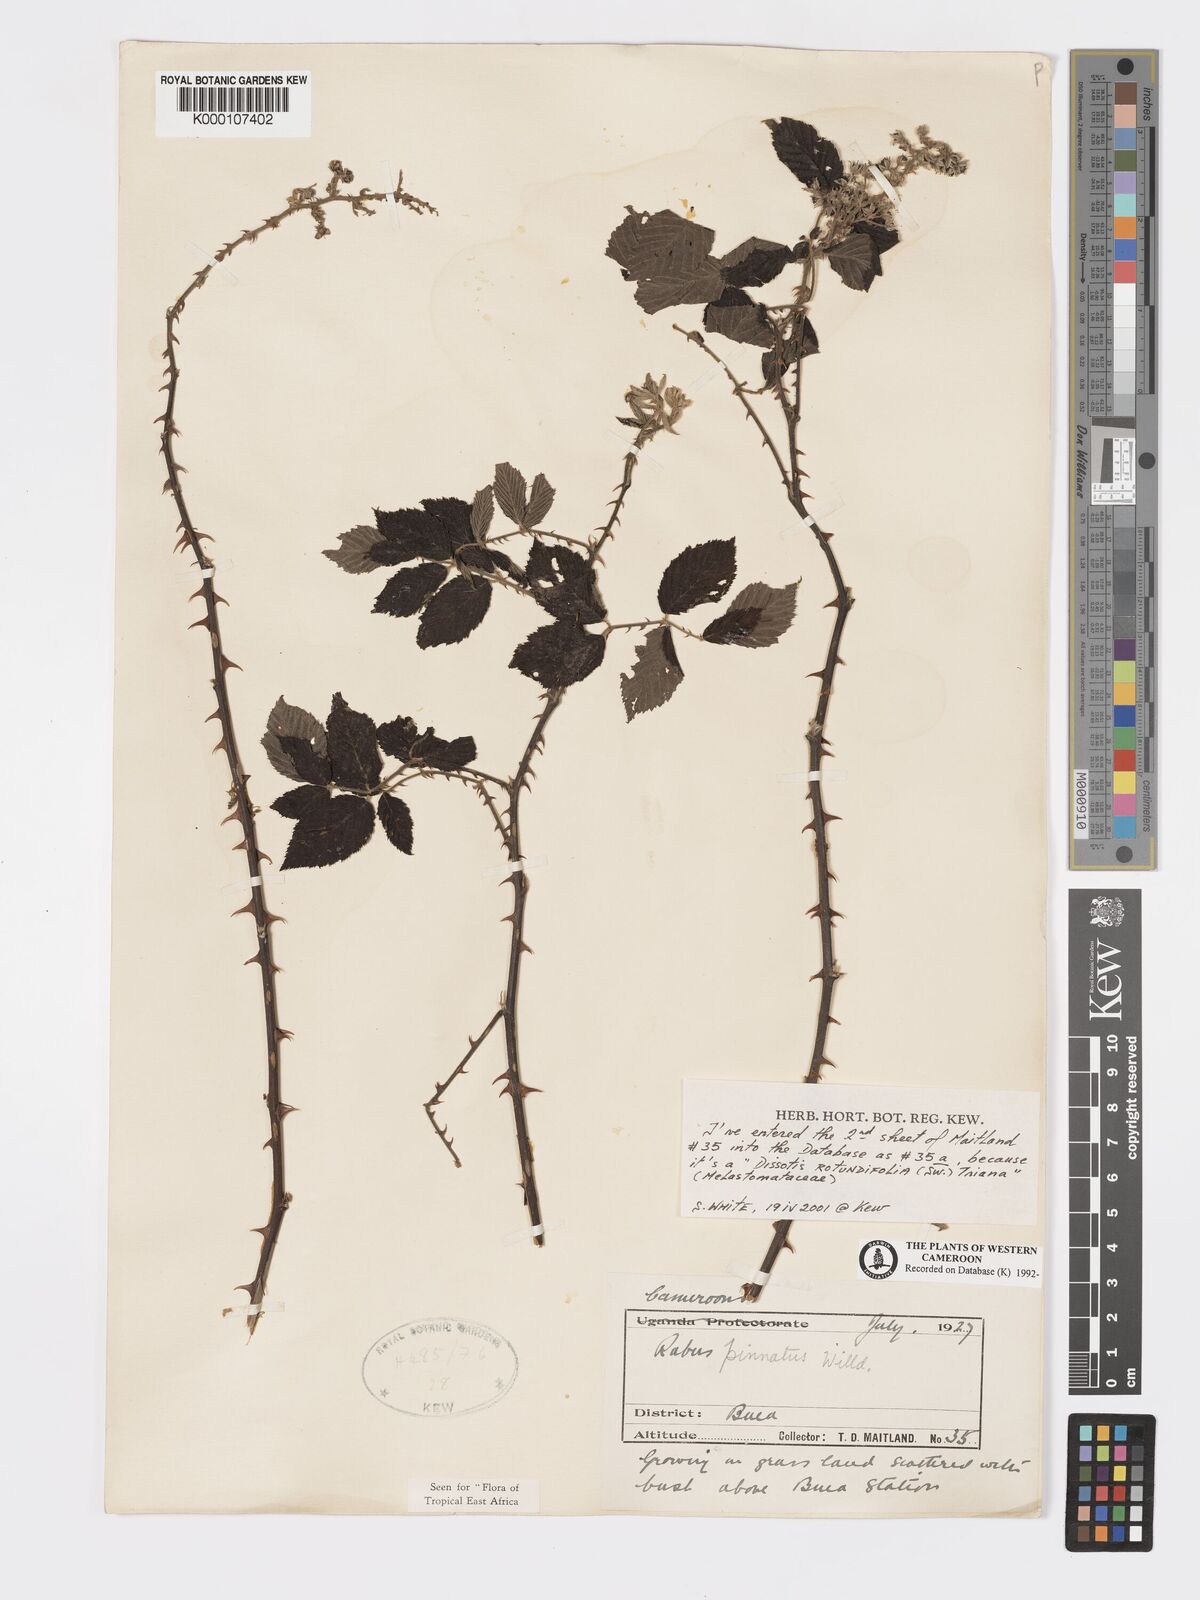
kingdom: Plantae
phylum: Tracheophyta
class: Magnoliopsida
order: Rosales
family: Rosaceae
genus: Rubus
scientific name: Rubus pinnatus
